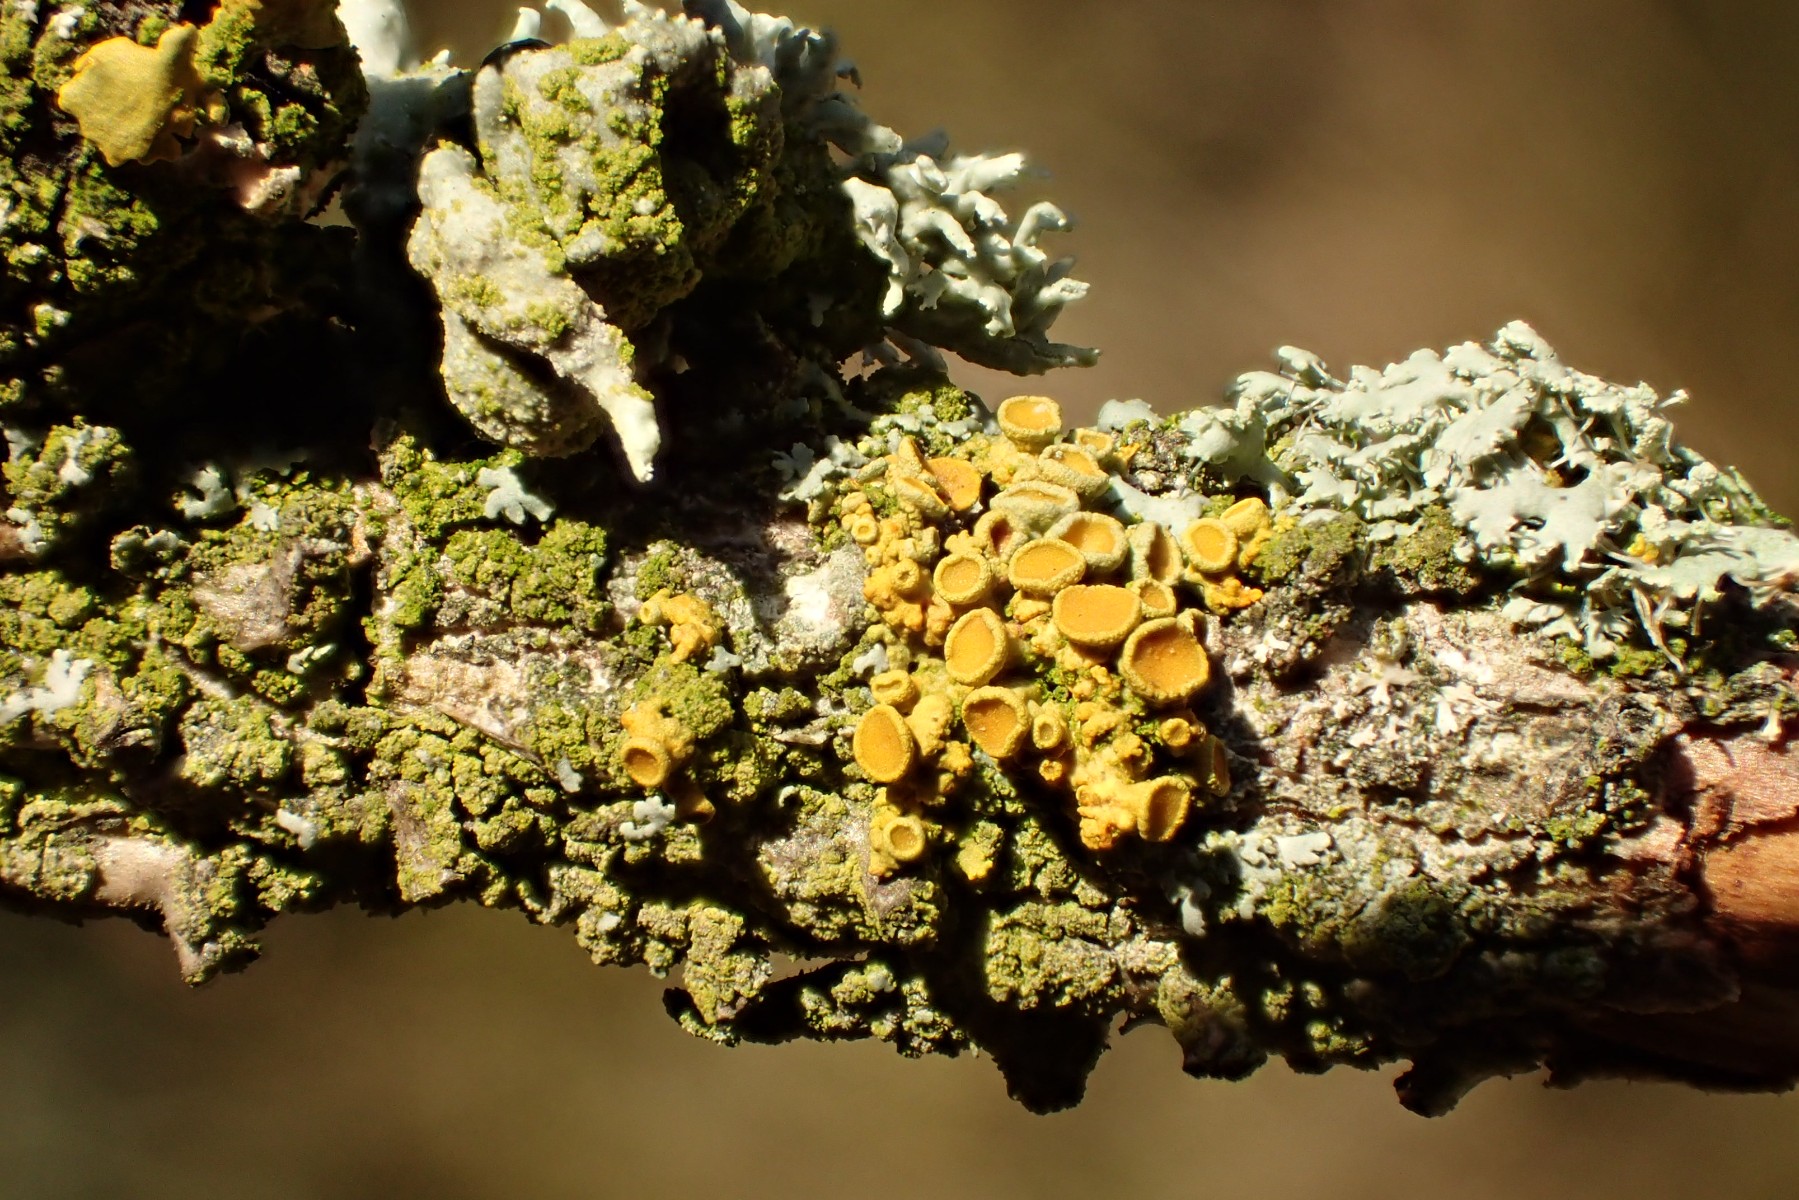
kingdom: Fungi
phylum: Ascomycota
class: Lecanoromycetes
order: Teloschistales
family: Teloschistaceae
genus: Polycauliona
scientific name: Polycauliona polycarpa
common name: mangefrugtet orangelav
